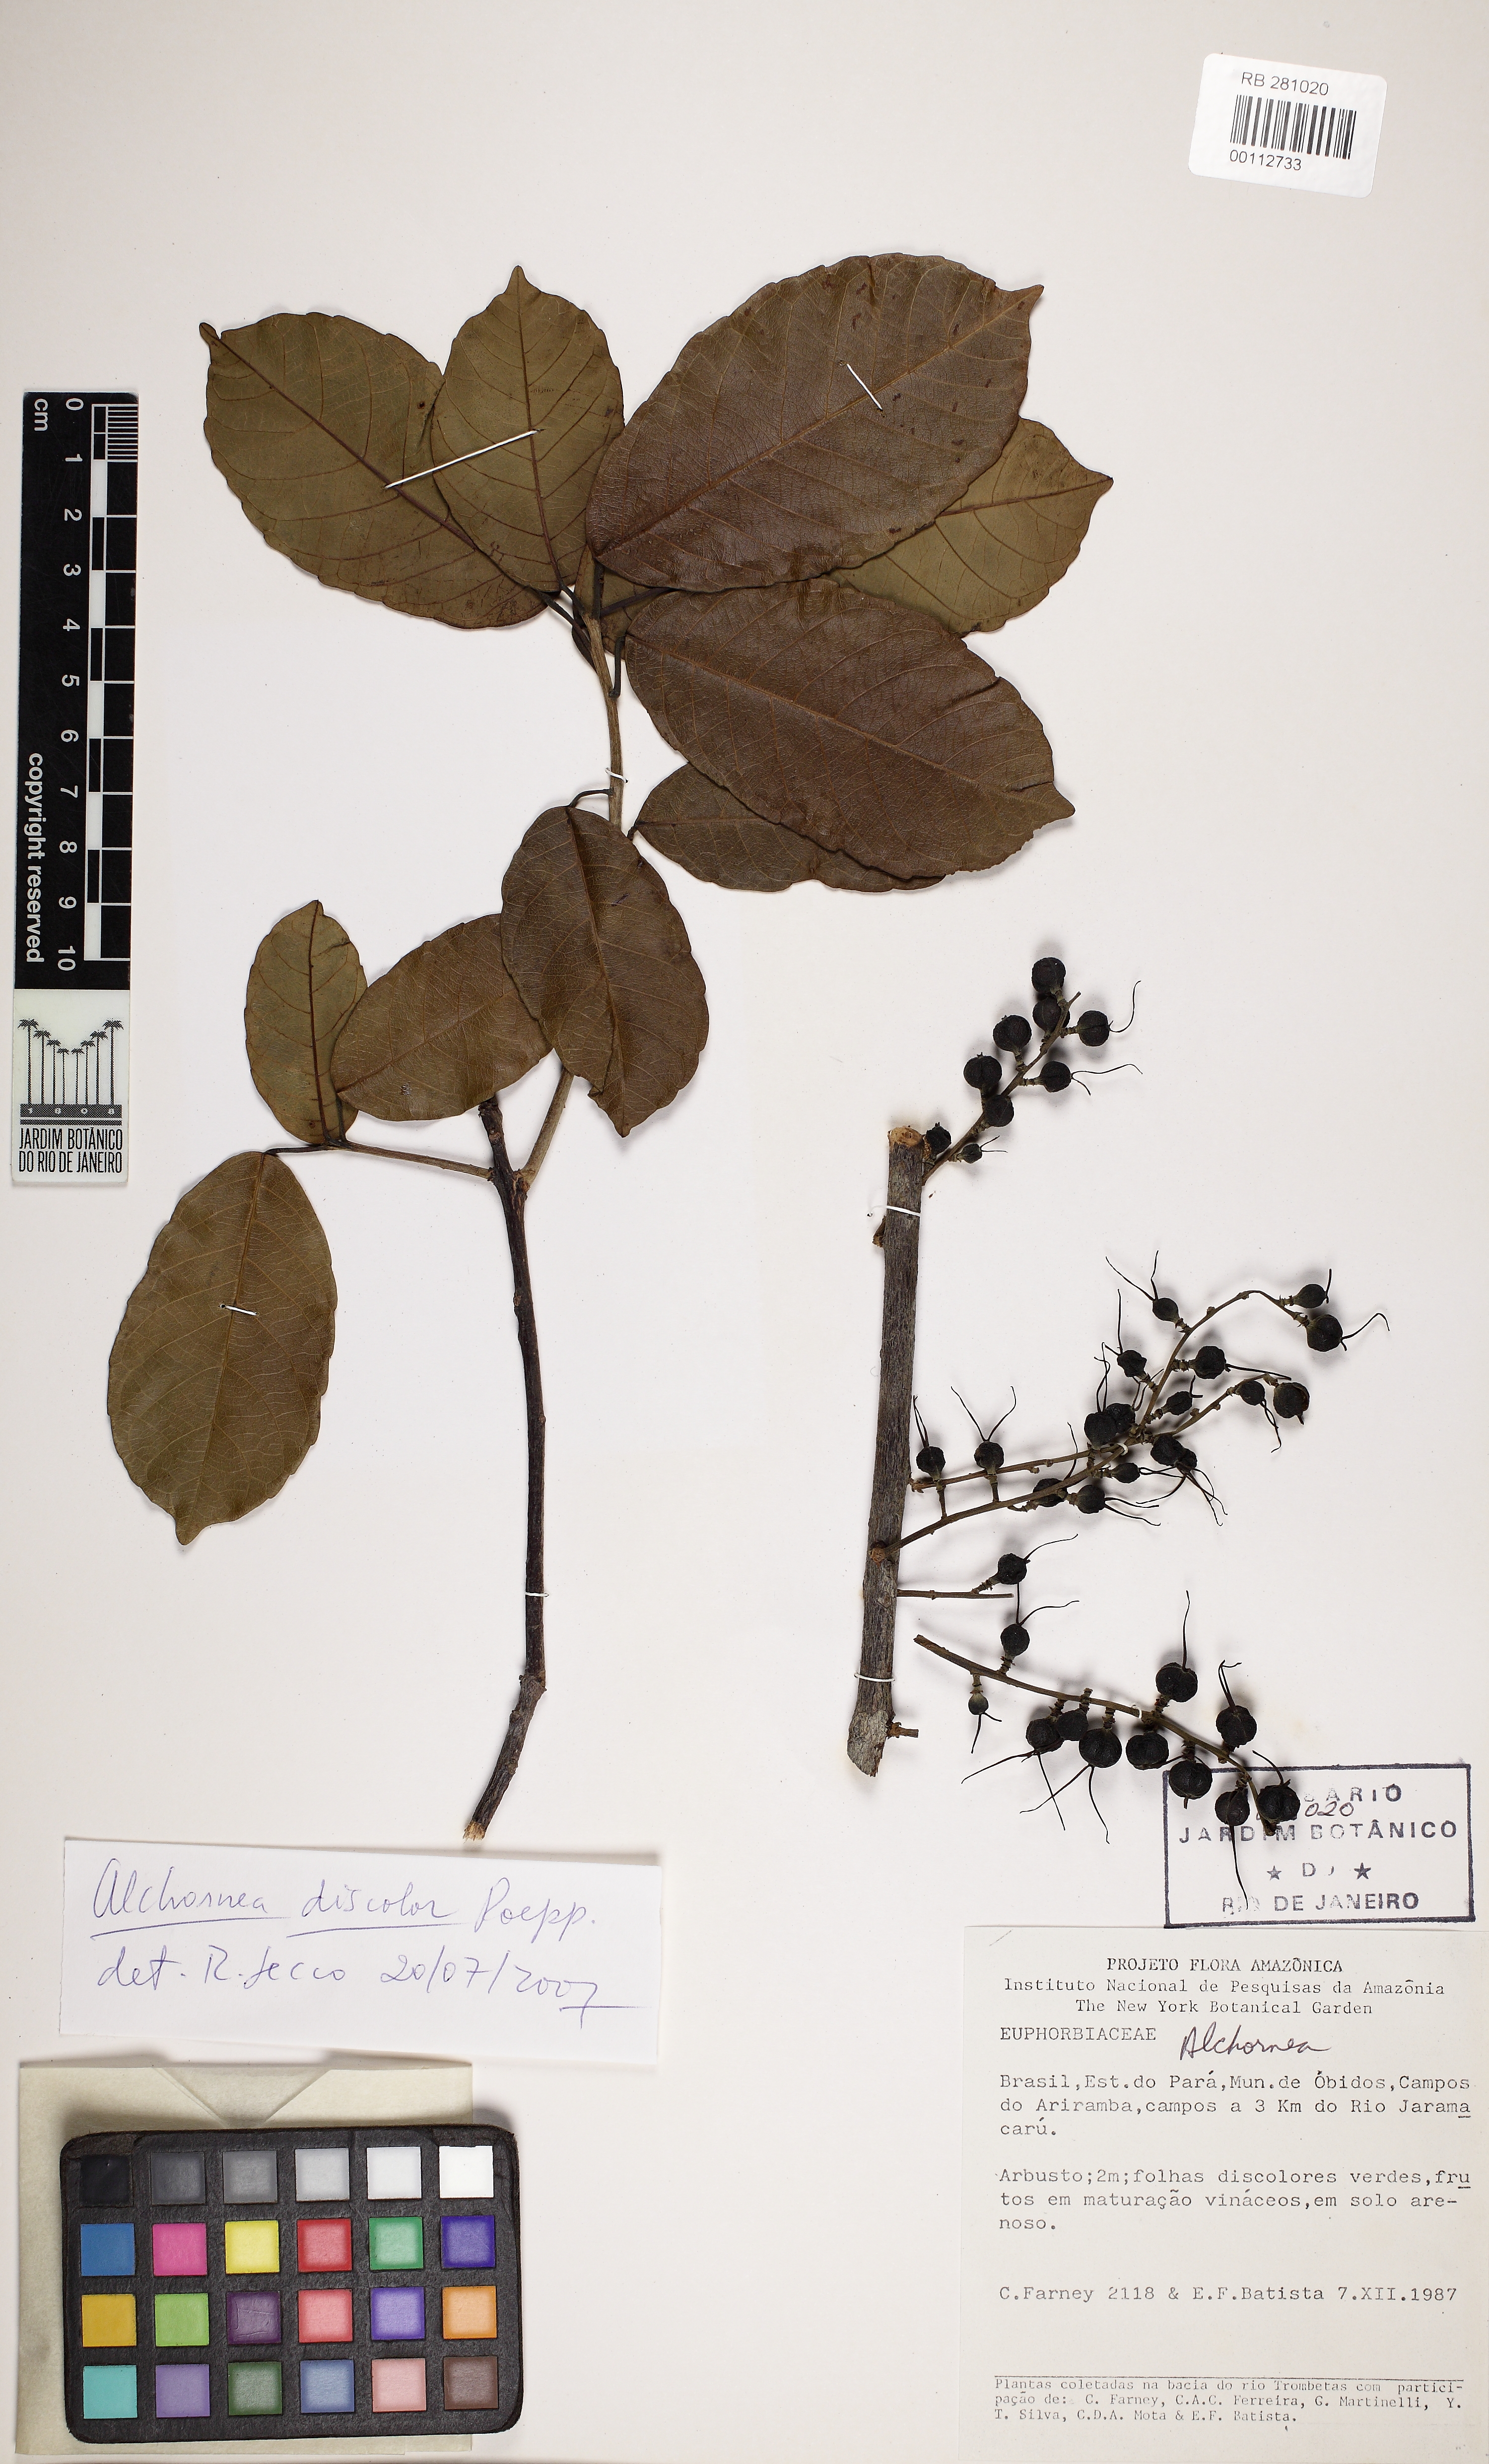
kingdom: Plantae
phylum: Tracheophyta
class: Magnoliopsida
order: Malpighiales
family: Euphorbiaceae
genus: Alchornea
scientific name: Alchornea glandulosa
